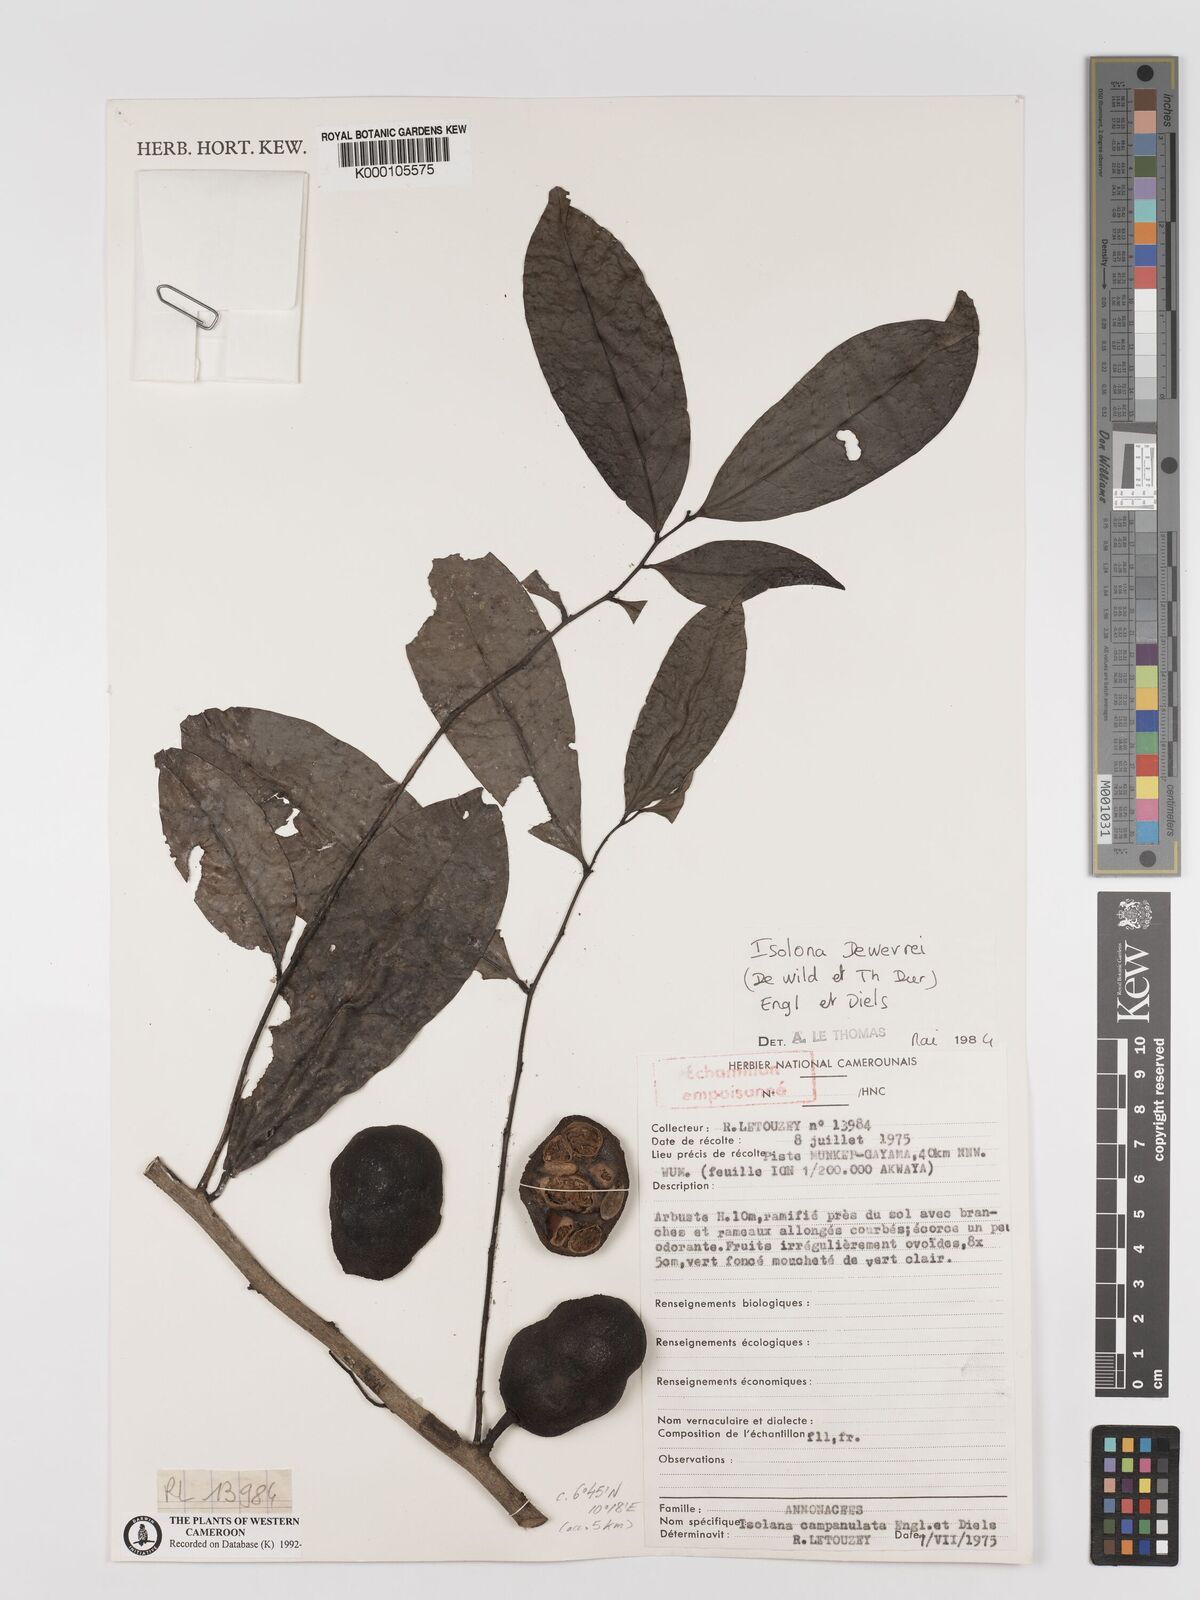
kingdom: Plantae
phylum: Tracheophyta
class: Magnoliopsida
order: Magnoliales
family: Annonaceae
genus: Isolona
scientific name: Isolona
